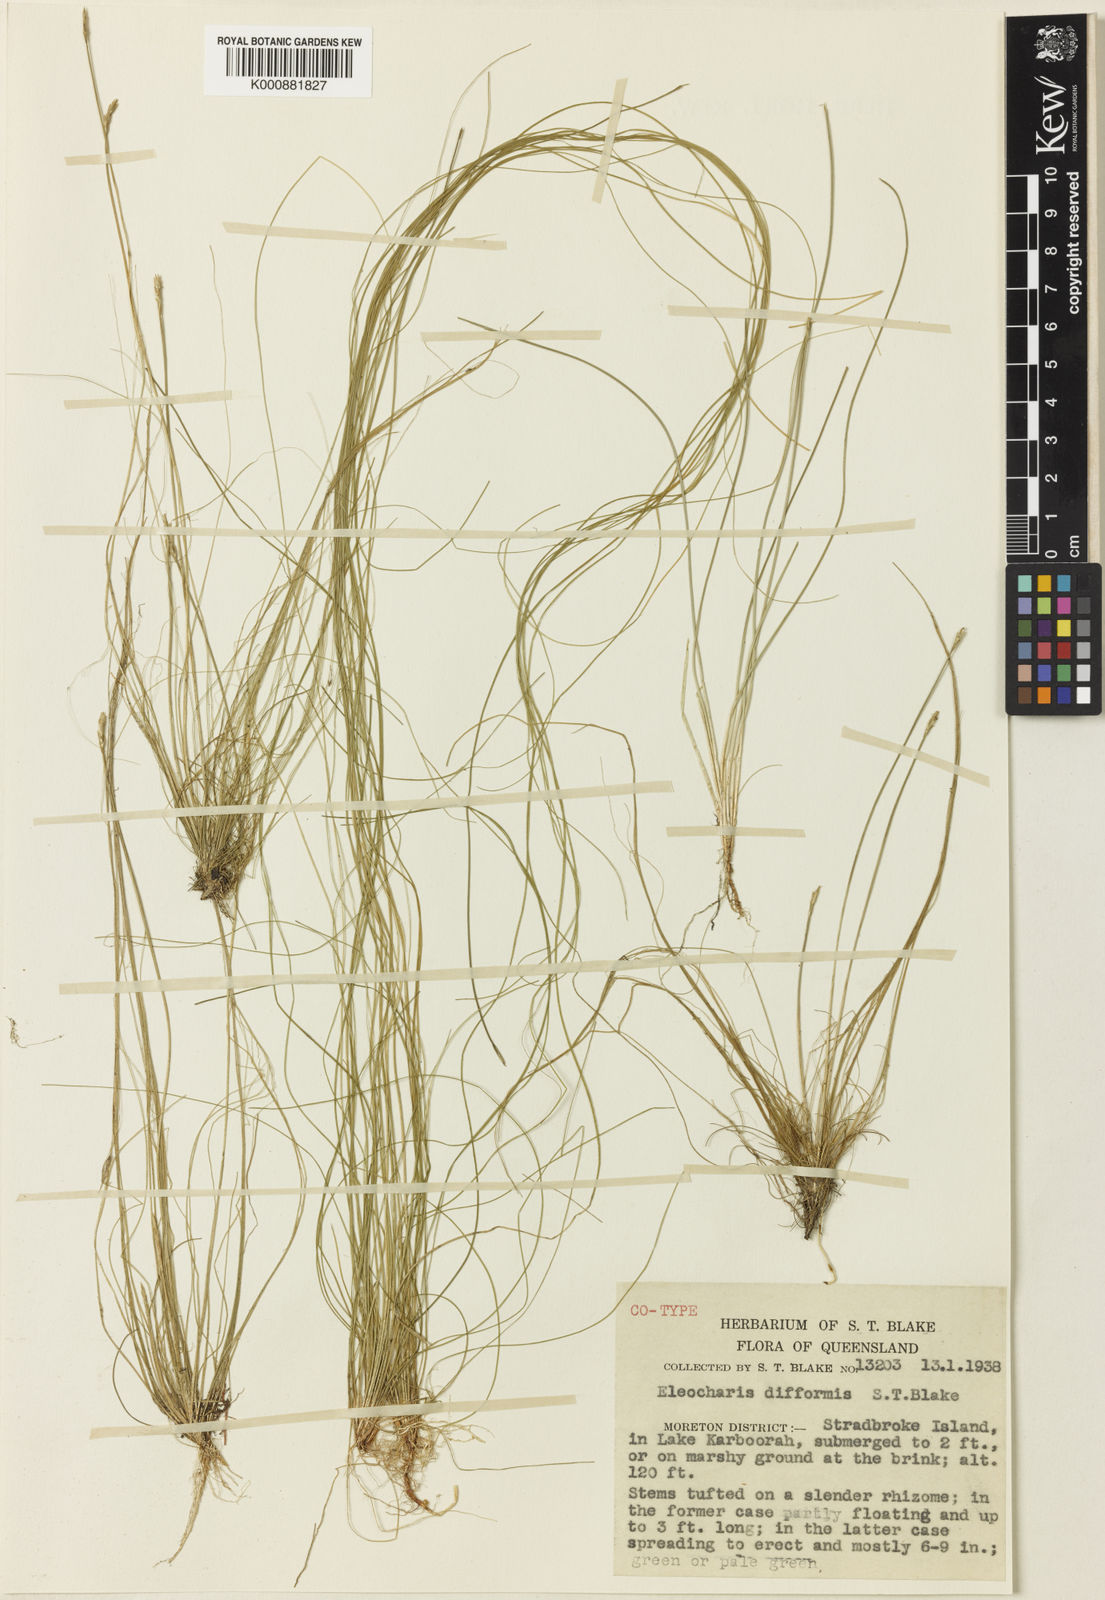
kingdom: Plantae
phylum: Tracheophyta
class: Liliopsida
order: Poales
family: Cyperaceae
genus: Eleocharis
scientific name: Eleocharis difformis
